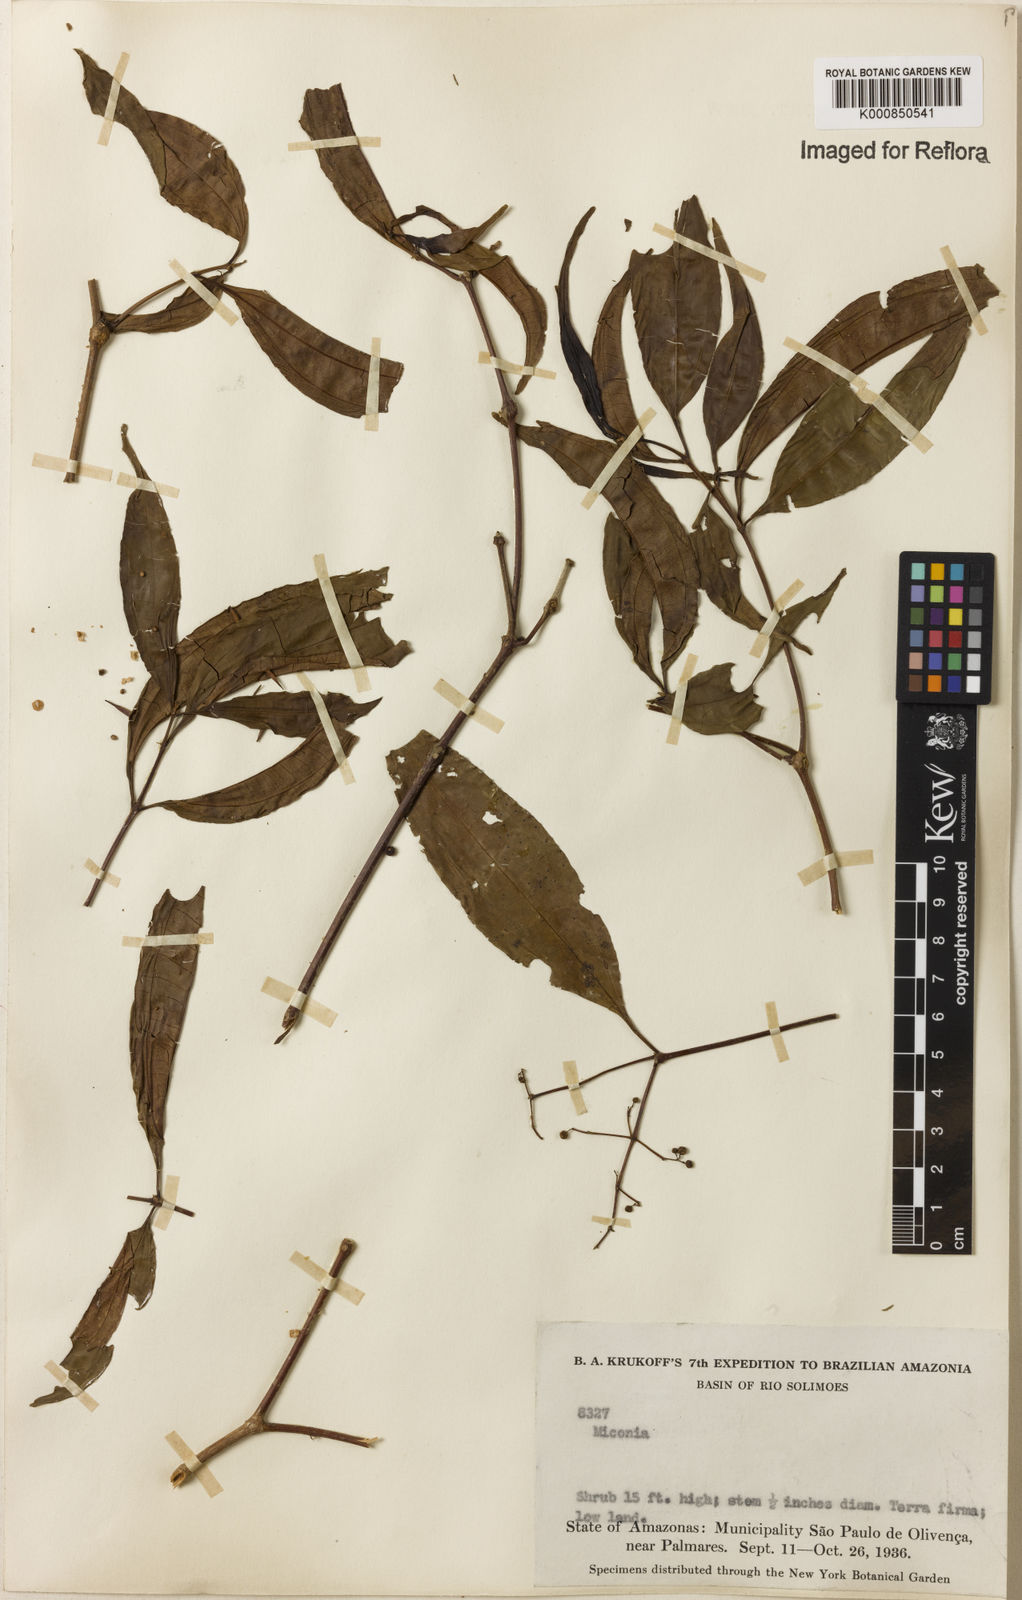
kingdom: Plantae
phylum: Tracheophyta
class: Magnoliopsida
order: Myrtales
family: Melastomataceae
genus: Miconia
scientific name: Miconia
